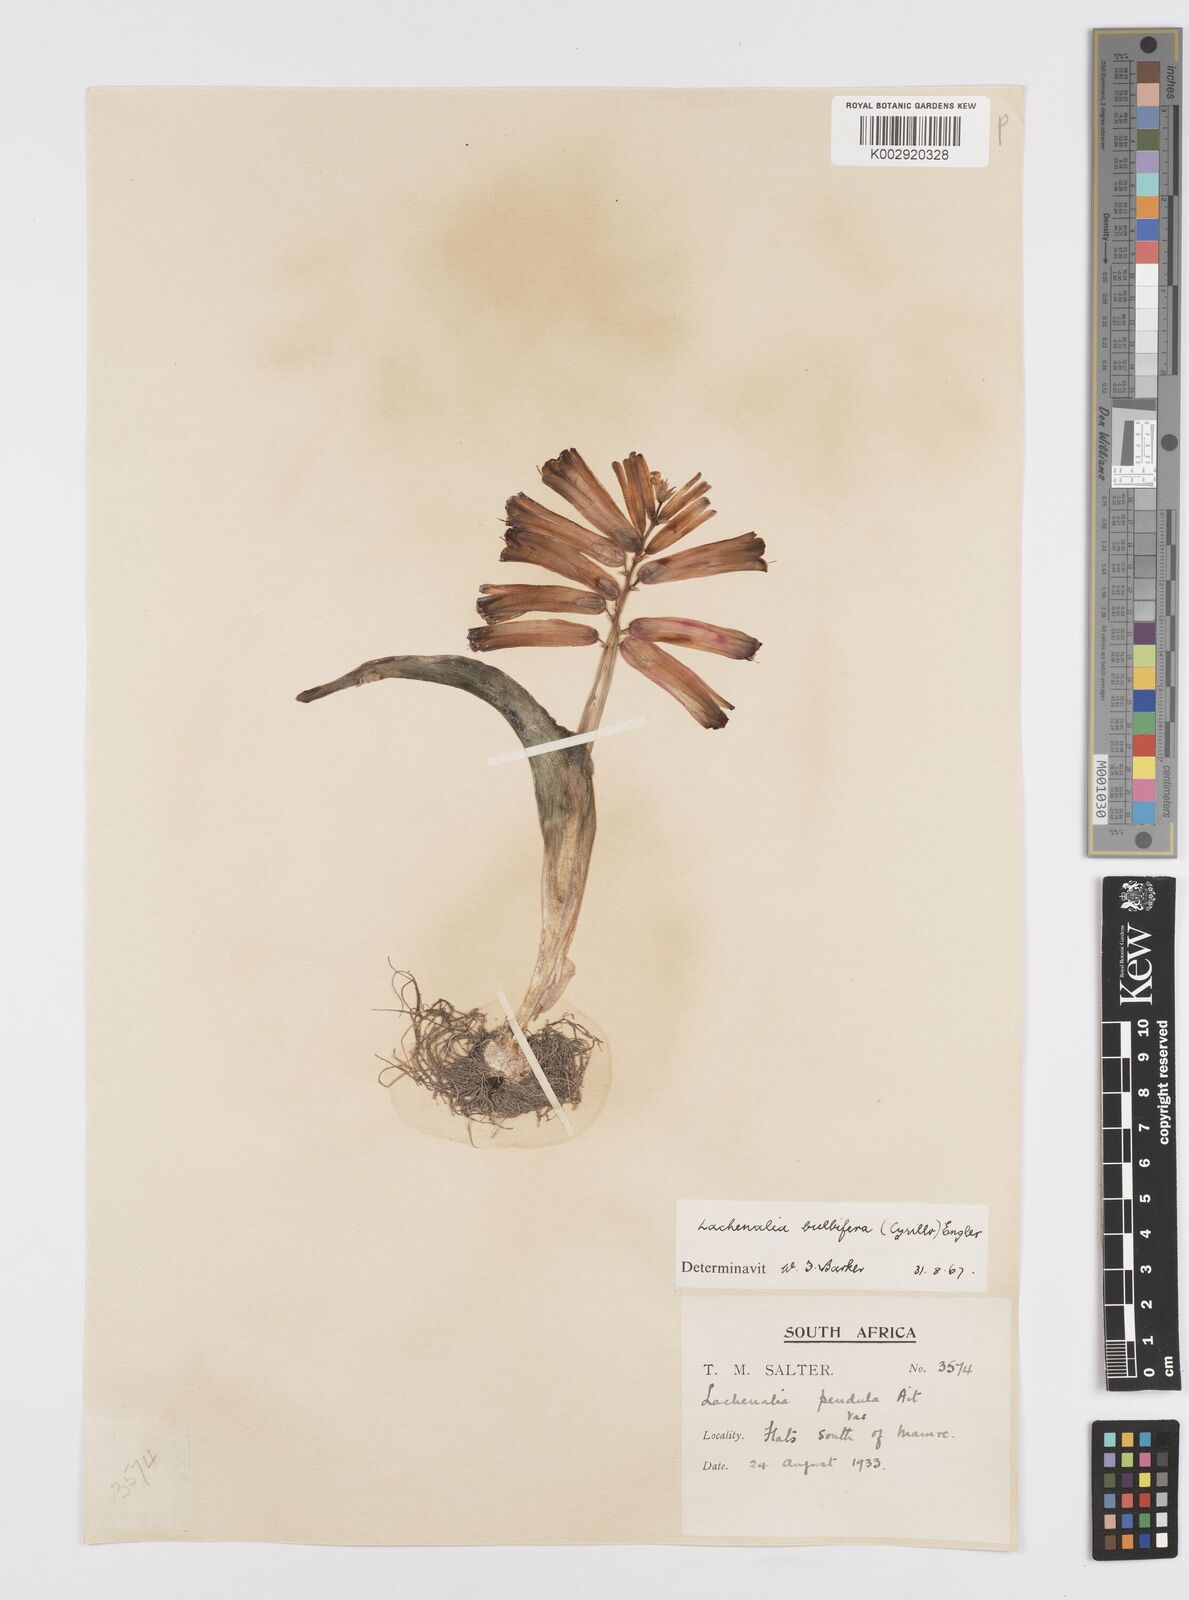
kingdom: Plantae
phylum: Tracheophyta
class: Liliopsida
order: Asparagales
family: Asparagaceae
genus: Lachenalia
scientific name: Lachenalia bulbifera
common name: Red lachenalia
